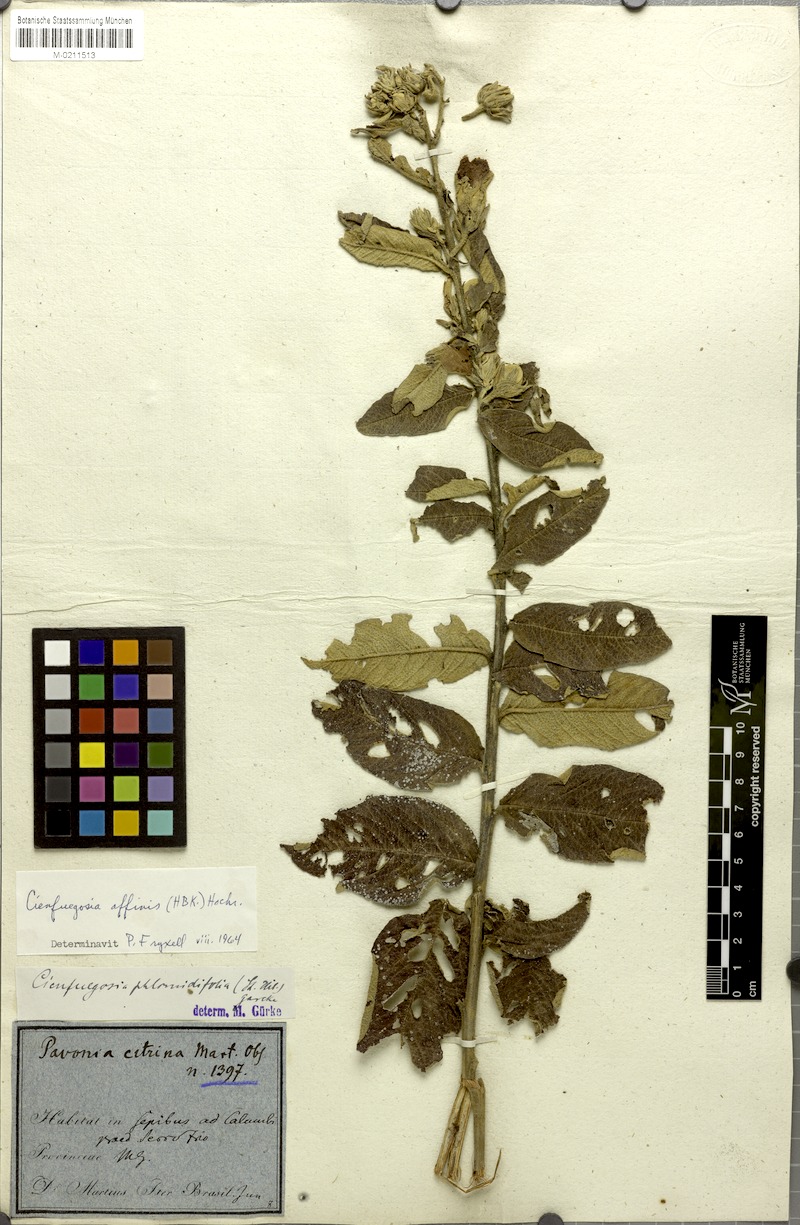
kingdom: Plantae
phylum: Tracheophyta
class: Magnoliopsida
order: Malvales
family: Malvaceae
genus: Cienfuegosia
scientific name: Cienfuegosia affinis
